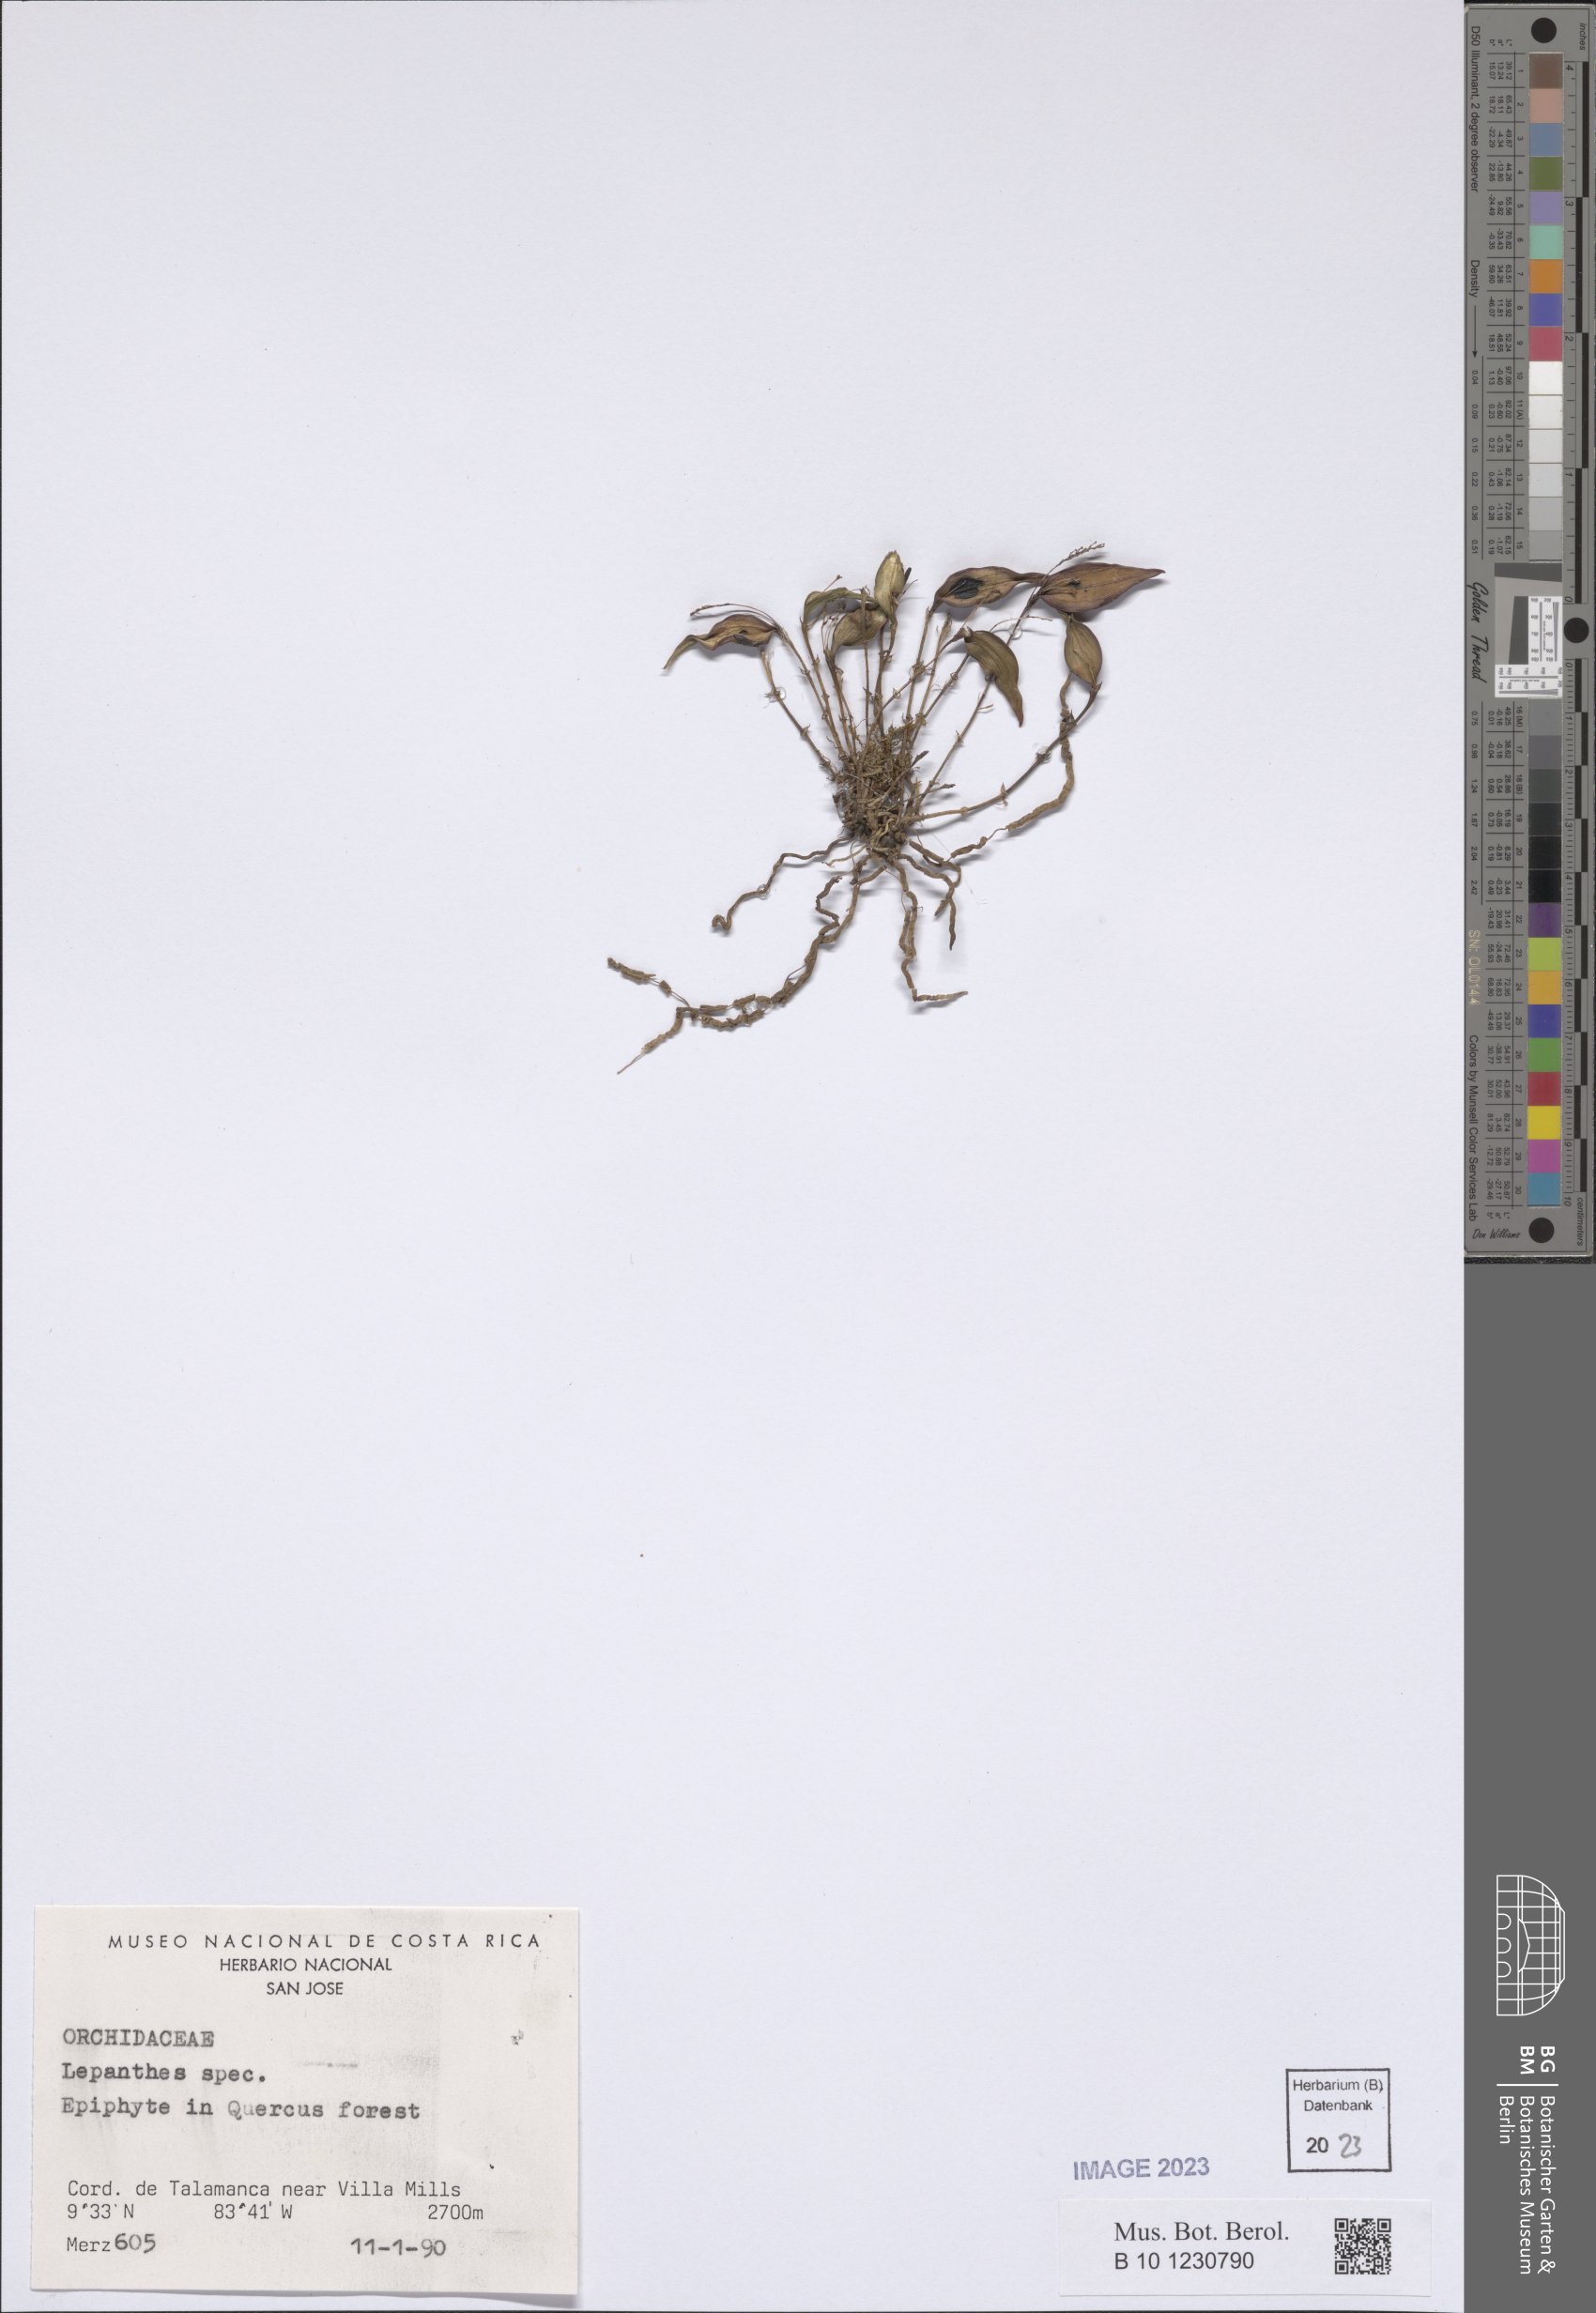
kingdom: Plantae
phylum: Tracheophyta
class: Liliopsida
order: Asparagales
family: Orchidaceae
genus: Lepanthes
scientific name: Lepanthes
